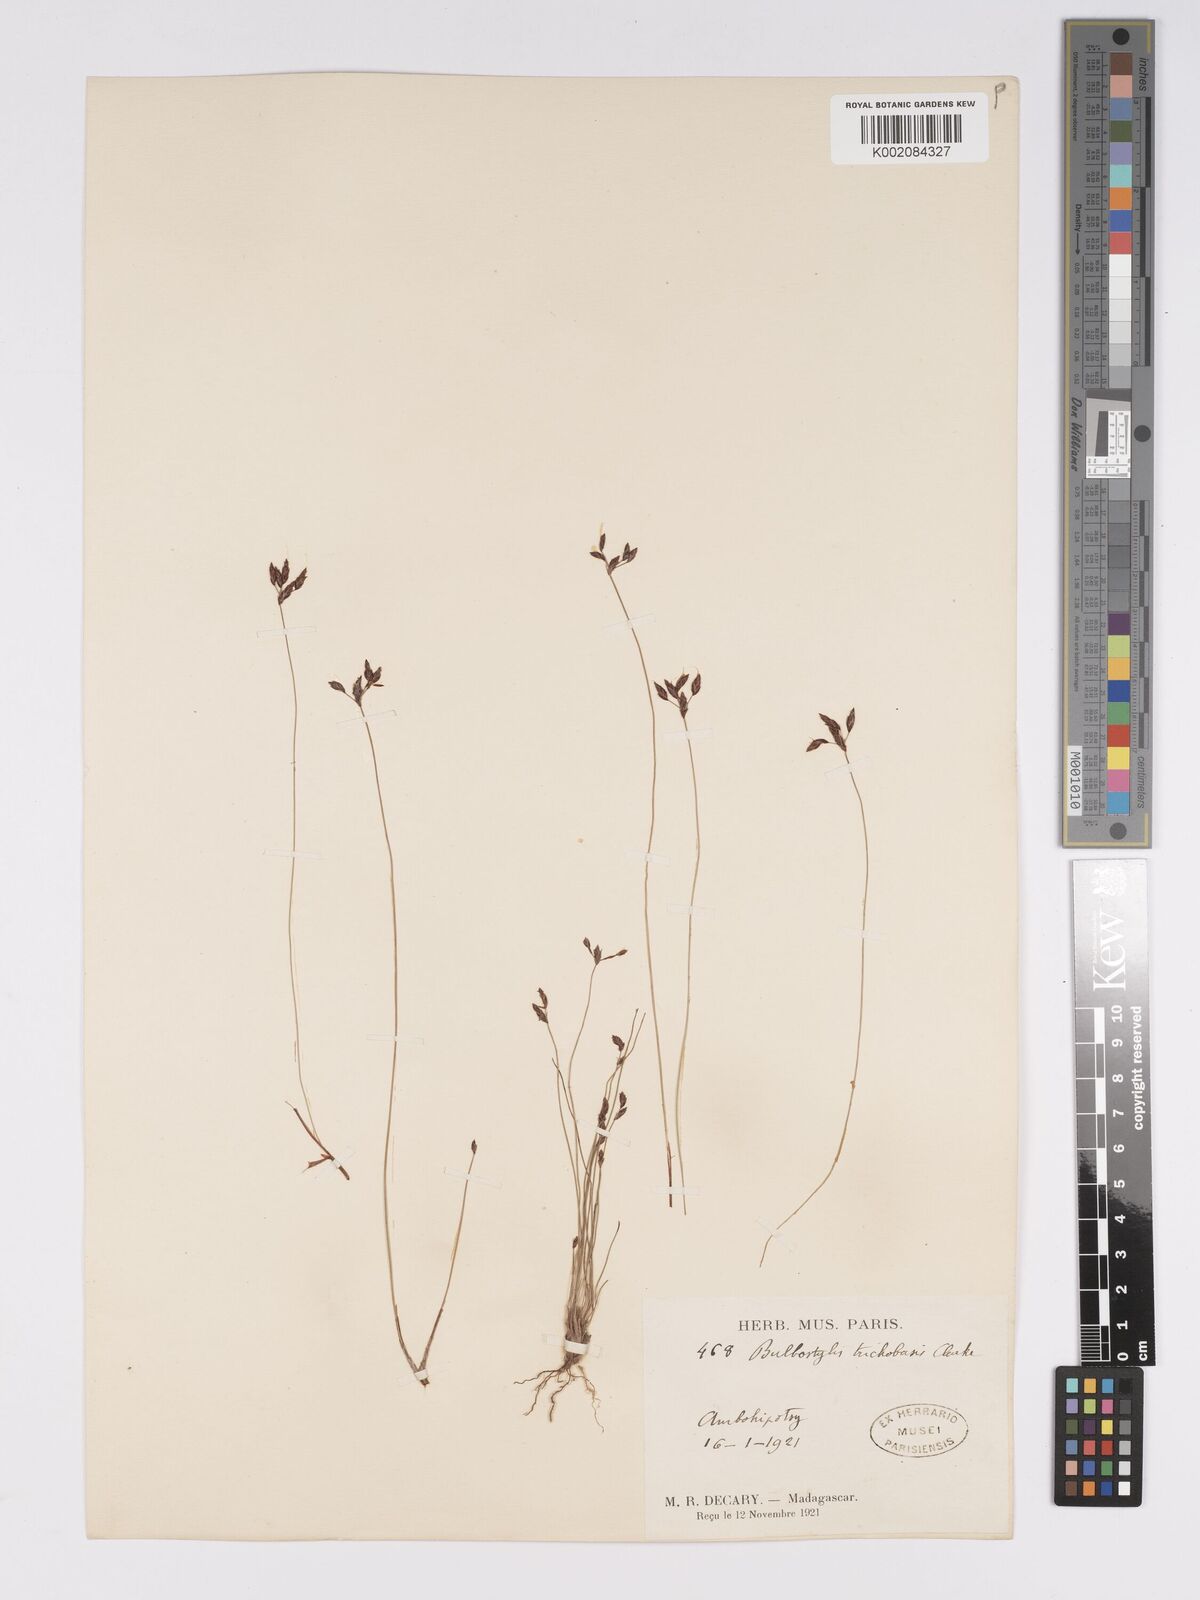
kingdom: Plantae
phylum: Tracheophyta
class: Liliopsida
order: Poales
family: Cyperaceae
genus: Bulbostylis
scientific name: Bulbostylis trichobasis
